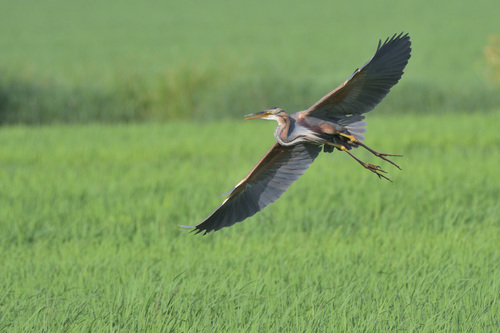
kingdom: Animalia
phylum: Chordata
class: Aves
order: Pelecaniformes
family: Ardeidae
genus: Ardea
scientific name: Ardea purpurea
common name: Purple heron
